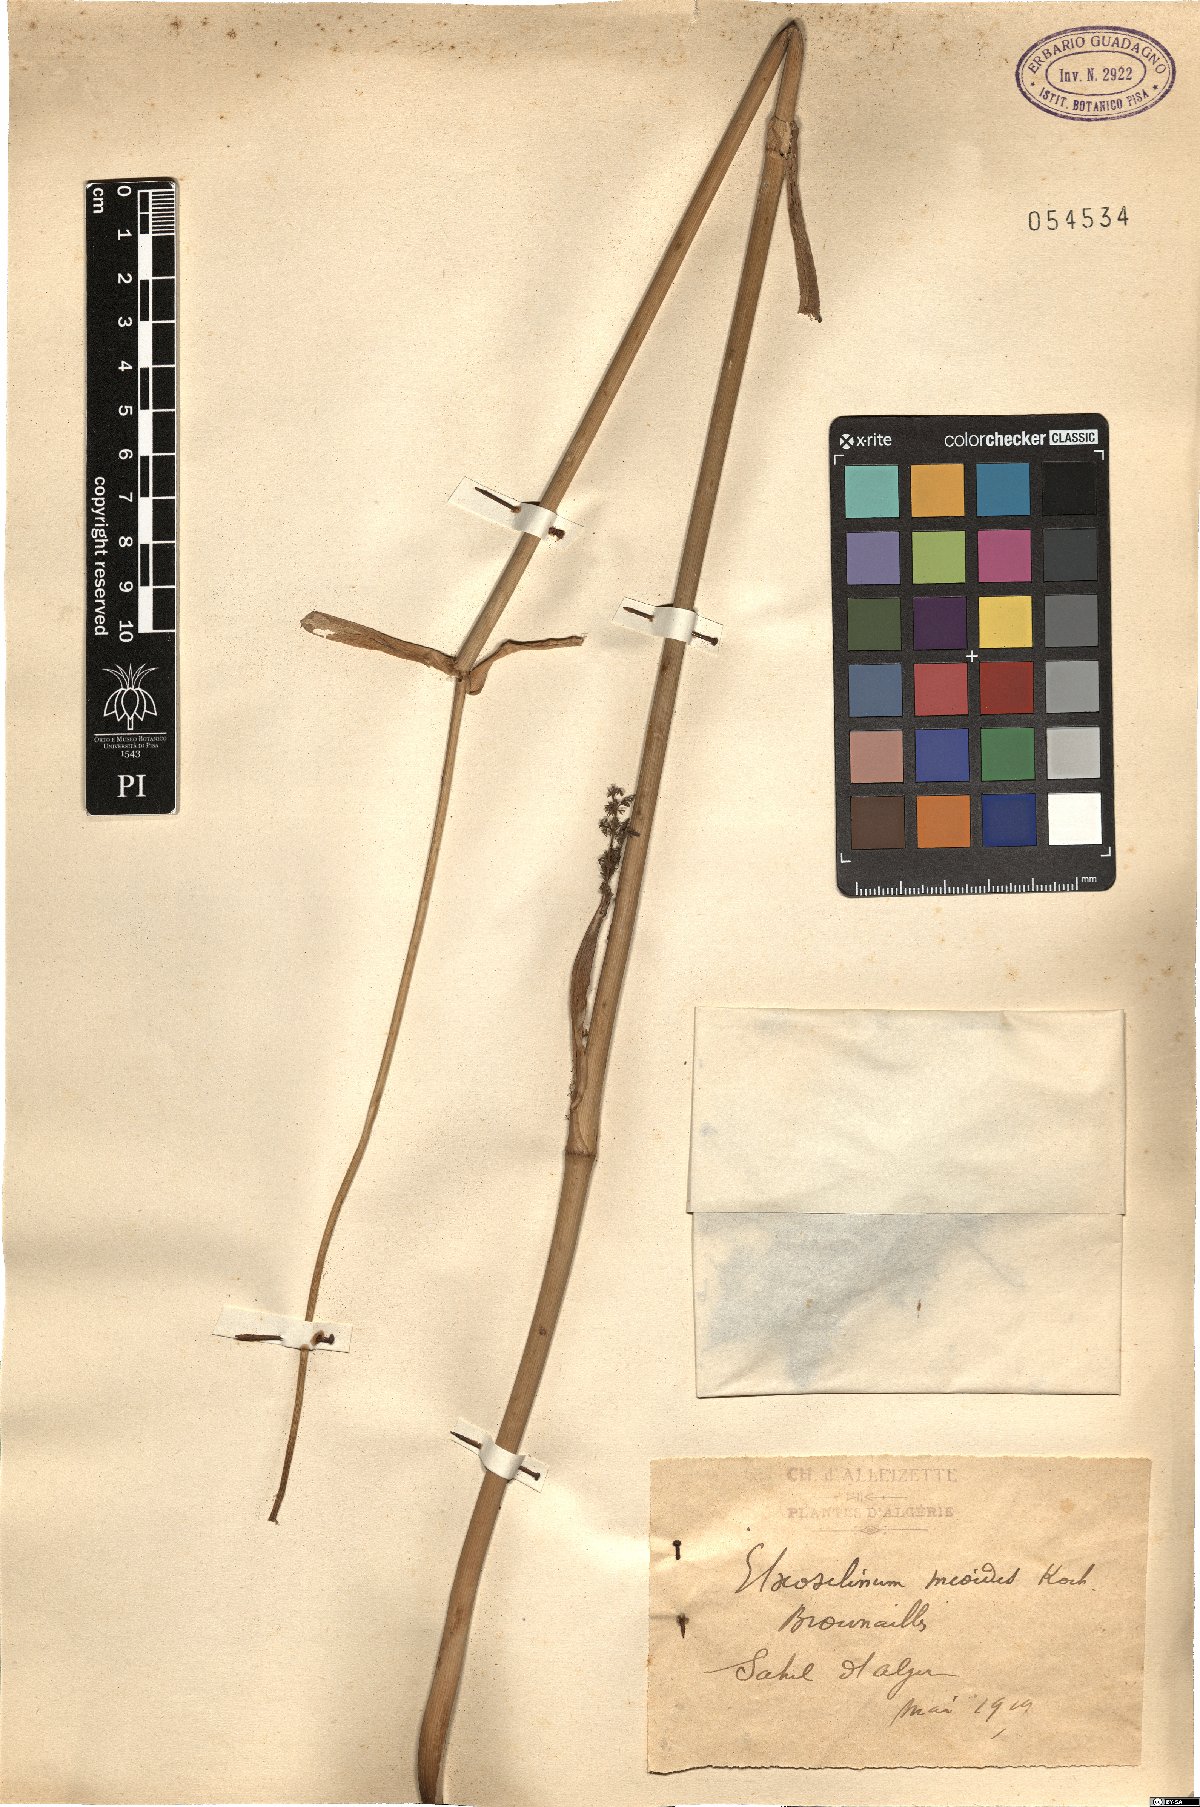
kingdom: Plantae
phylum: Tracheophyta
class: Magnoliopsida
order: Apiales
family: Apiaceae
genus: Thapsia
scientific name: Thapsia meoides
